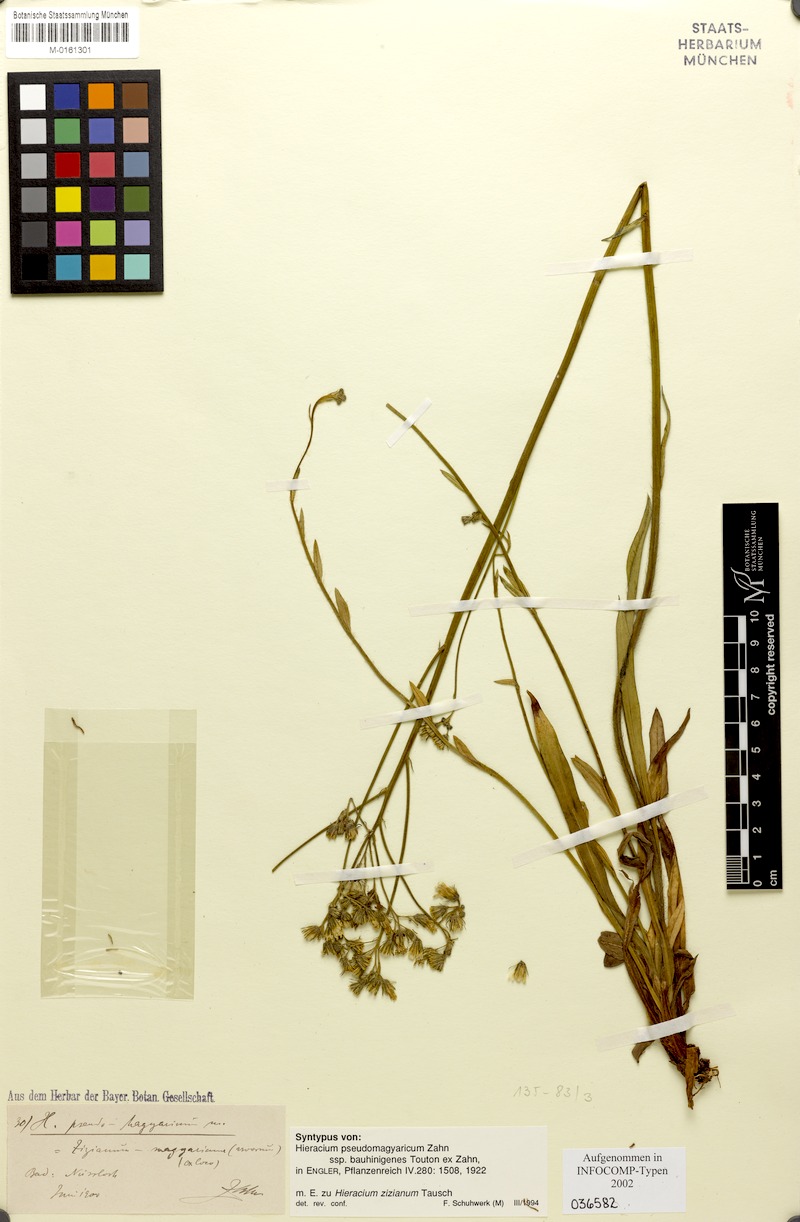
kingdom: Plantae
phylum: Tracheophyta
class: Magnoliopsida
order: Asterales
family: Asteraceae
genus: Pilosella
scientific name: Pilosella ziziana
